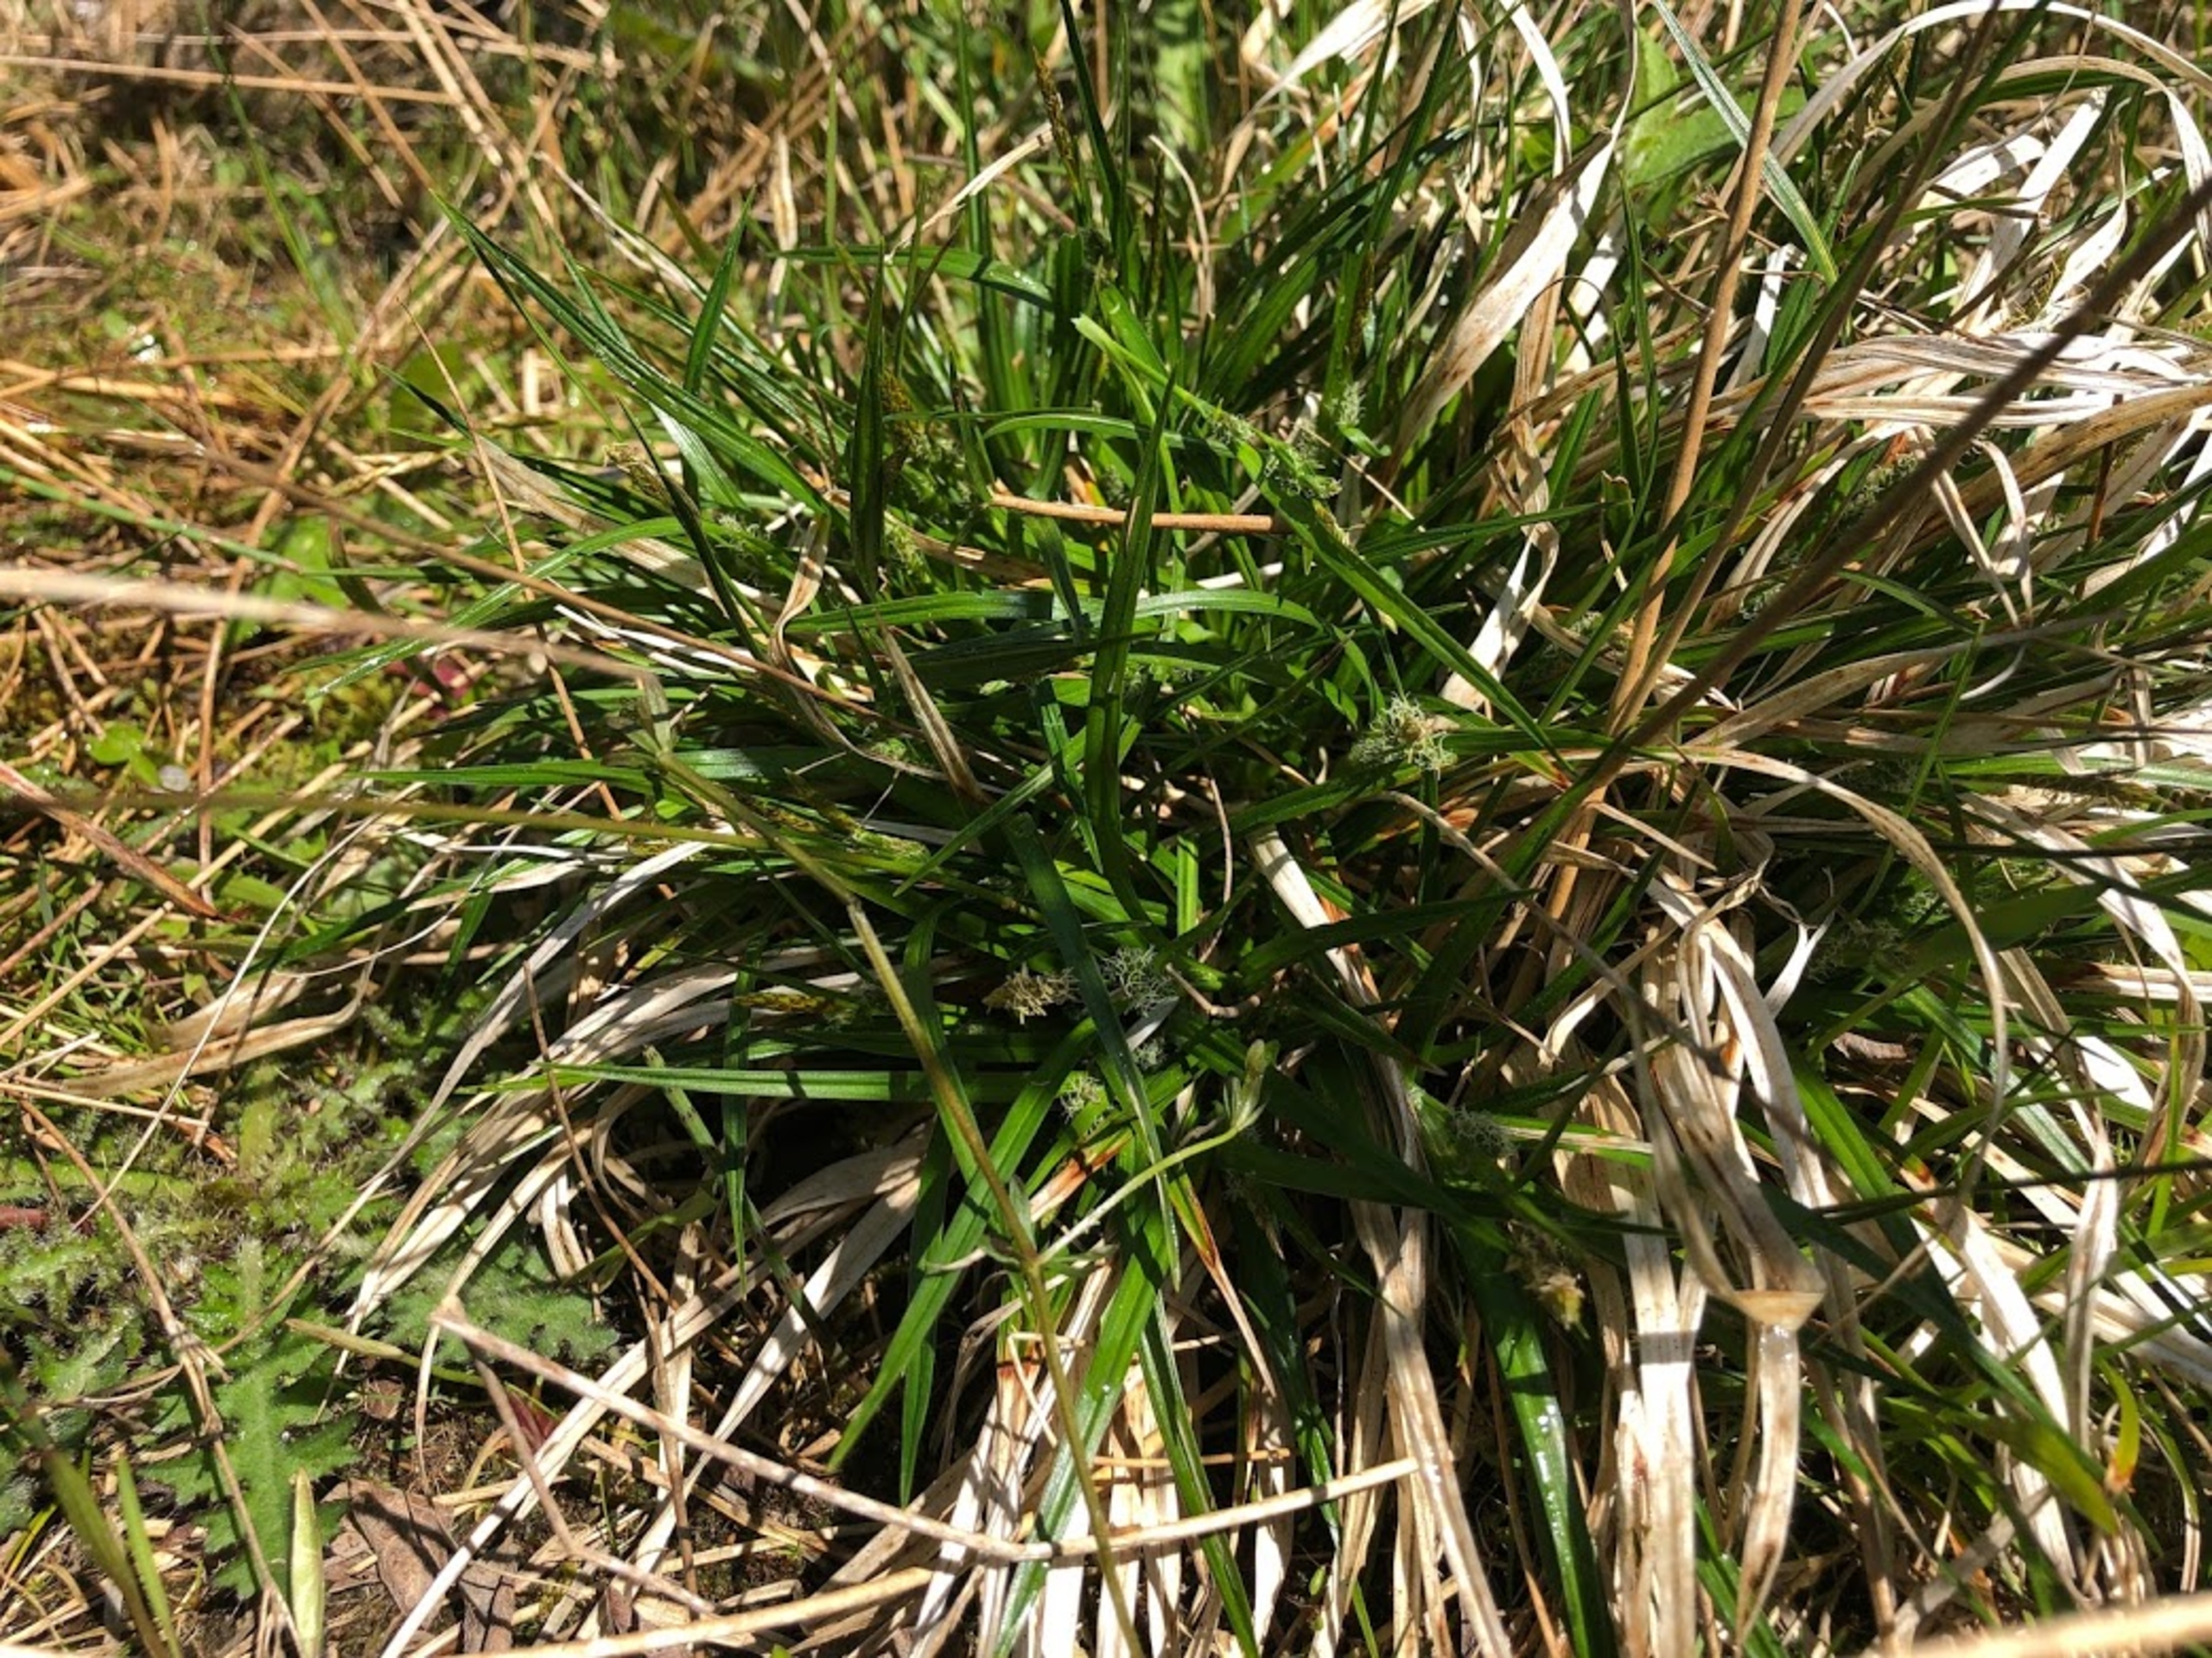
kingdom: Plantae
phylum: Tracheophyta
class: Liliopsida
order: Poales
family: Cyperaceae
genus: Carex
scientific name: Carex demissa
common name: Grøn star
